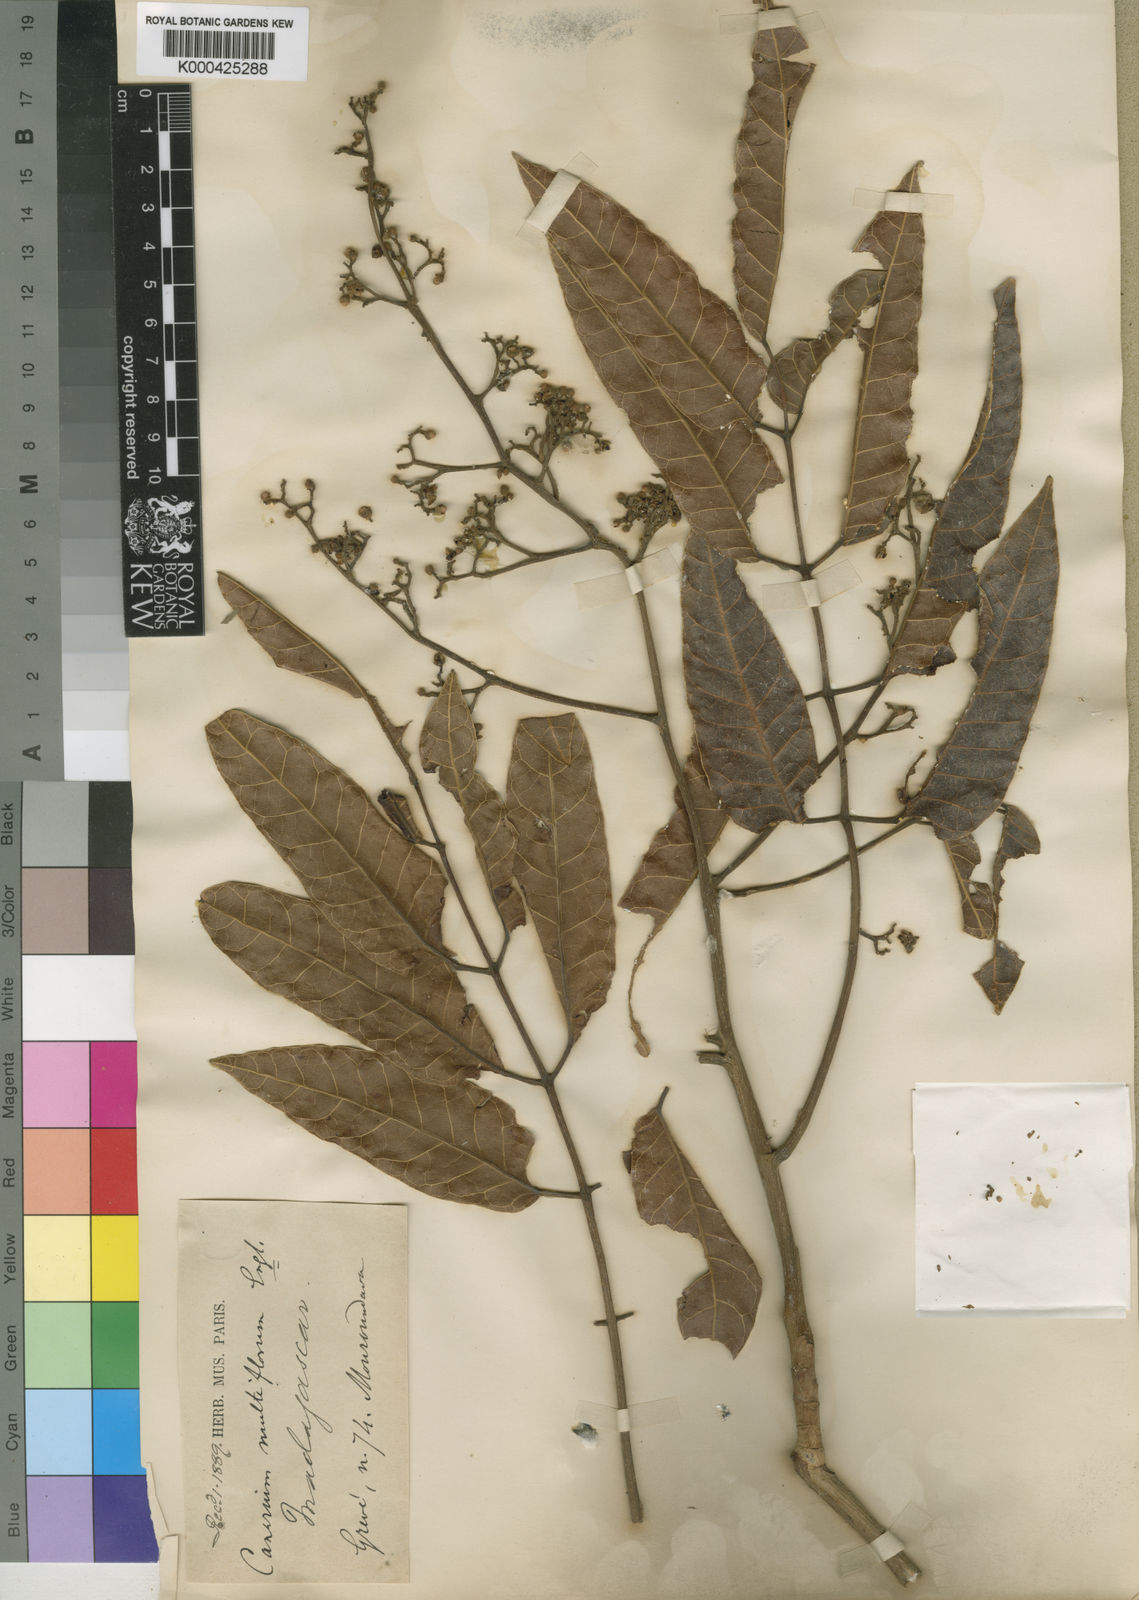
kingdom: Plantae
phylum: Tracheophyta
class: Magnoliopsida
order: Sapindales
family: Burseraceae
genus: Canarium
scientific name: Canarium madagascariense
